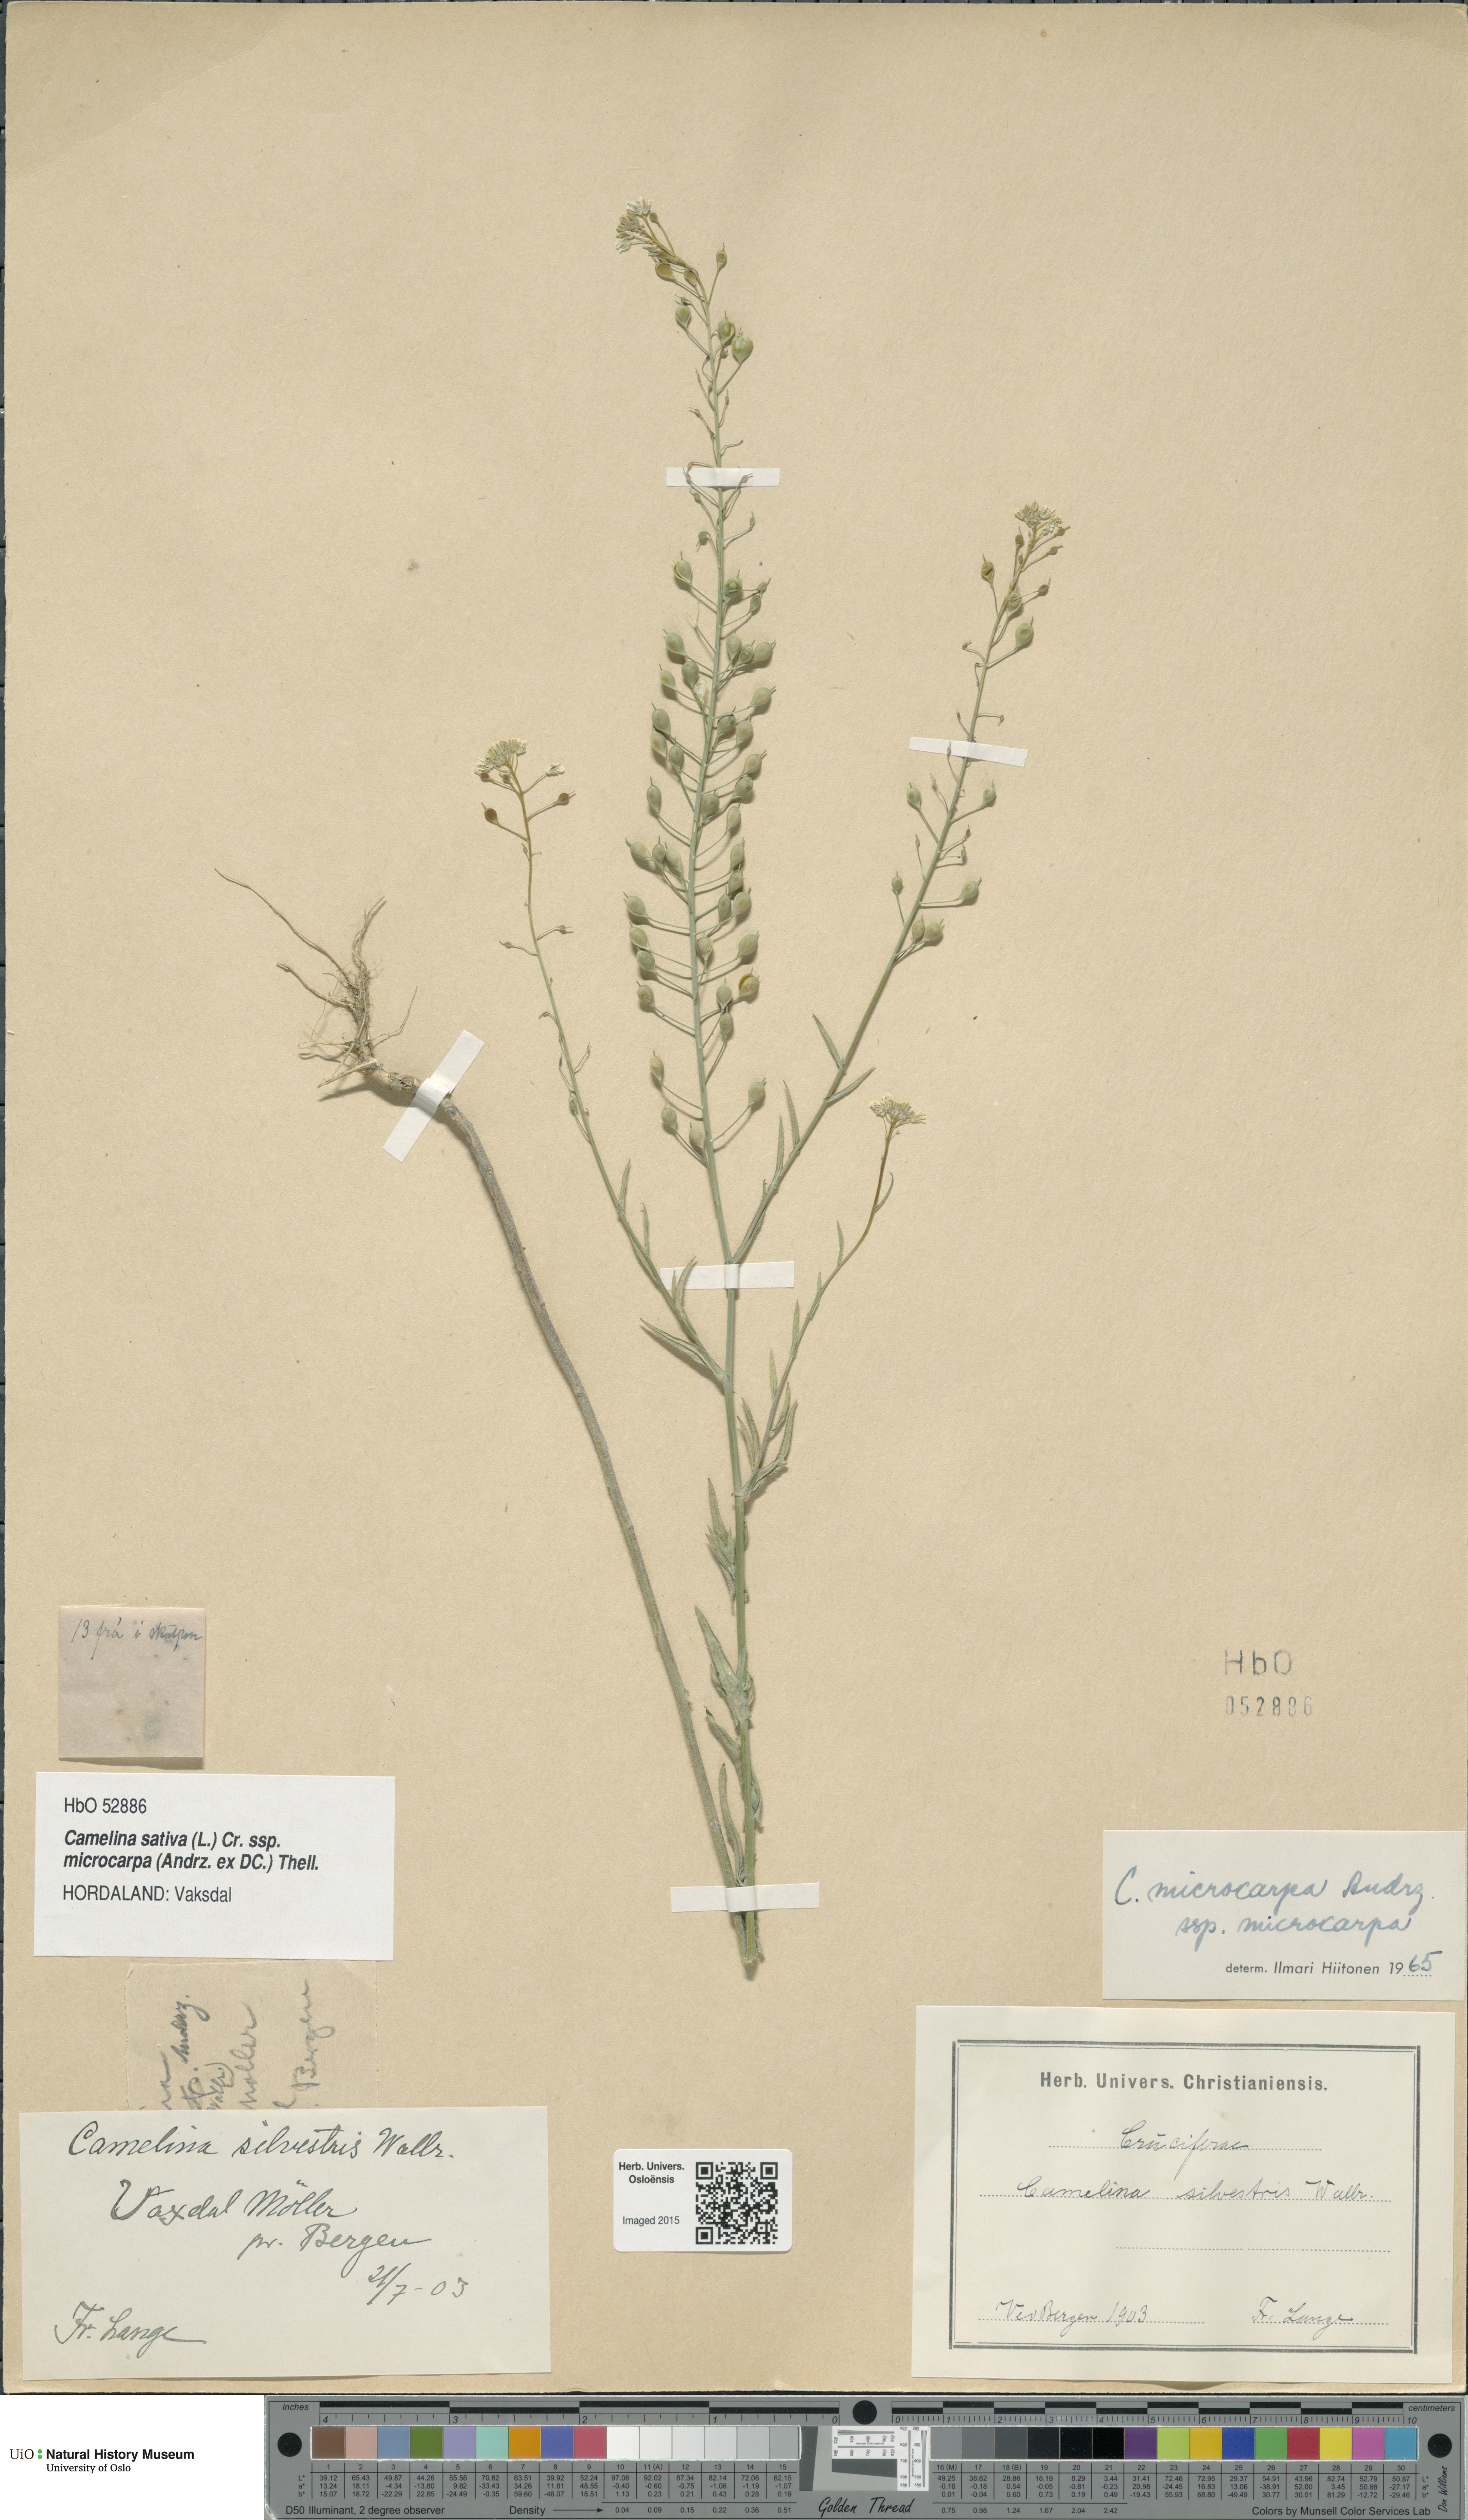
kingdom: Plantae
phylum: Tracheophyta
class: Magnoliopsida
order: Brassicales
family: Brassicaceae
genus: Camelina
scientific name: Camelina sativa
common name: Gold-of-pleasure
